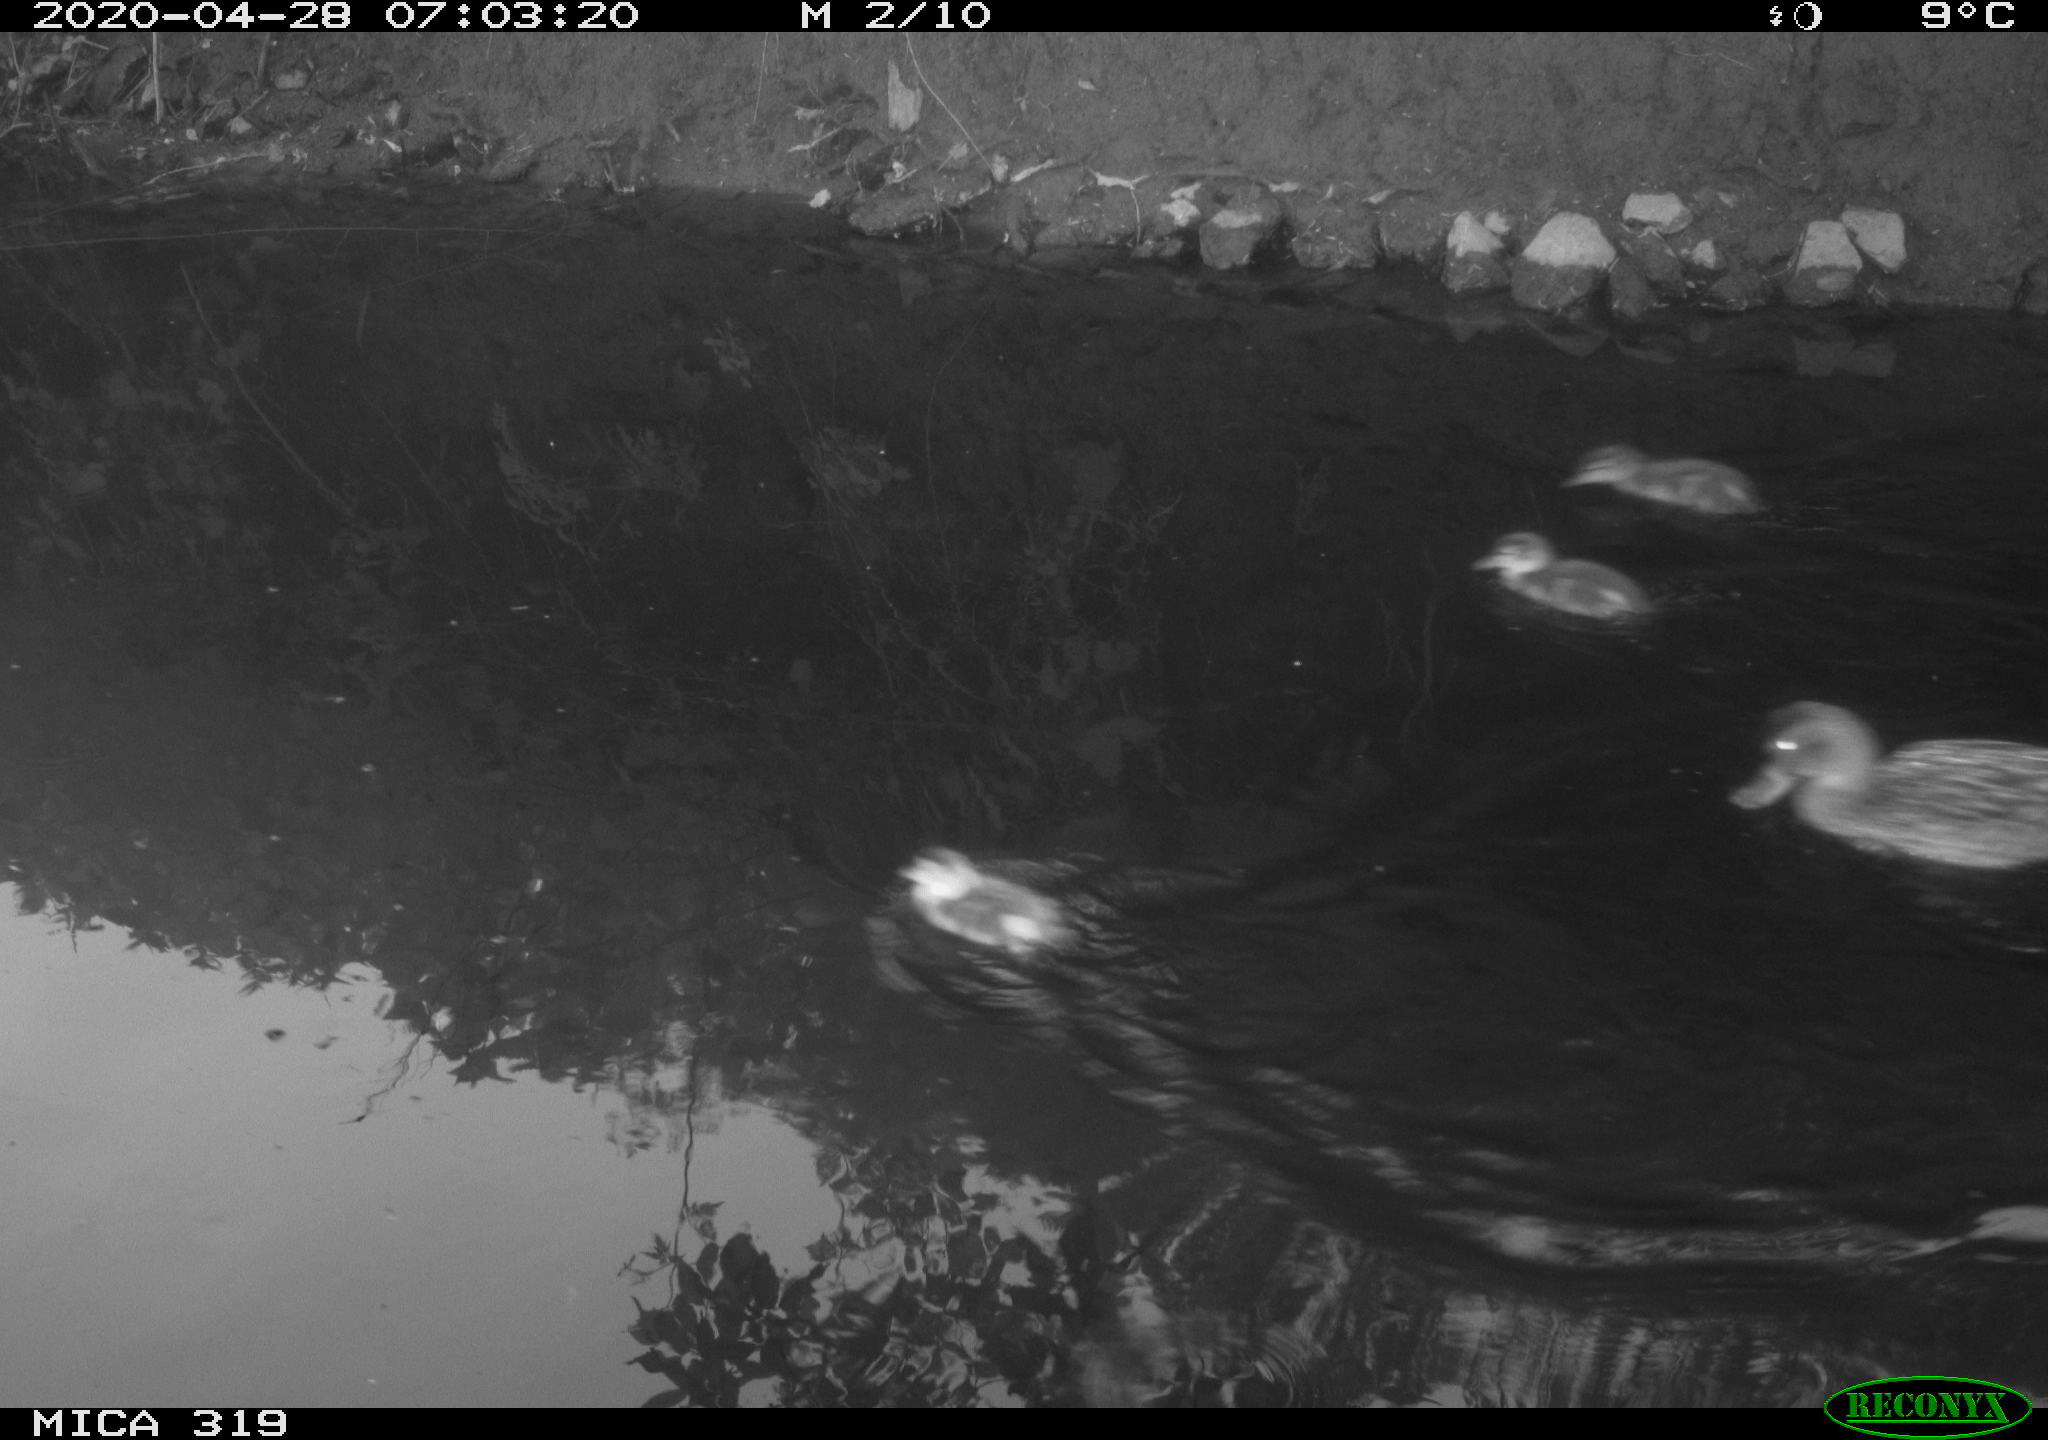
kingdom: Animalia
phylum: Chordata
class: Aves
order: Anseriformes
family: Anatidae
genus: Anas
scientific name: Anas platyrhynchos
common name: Mallard
